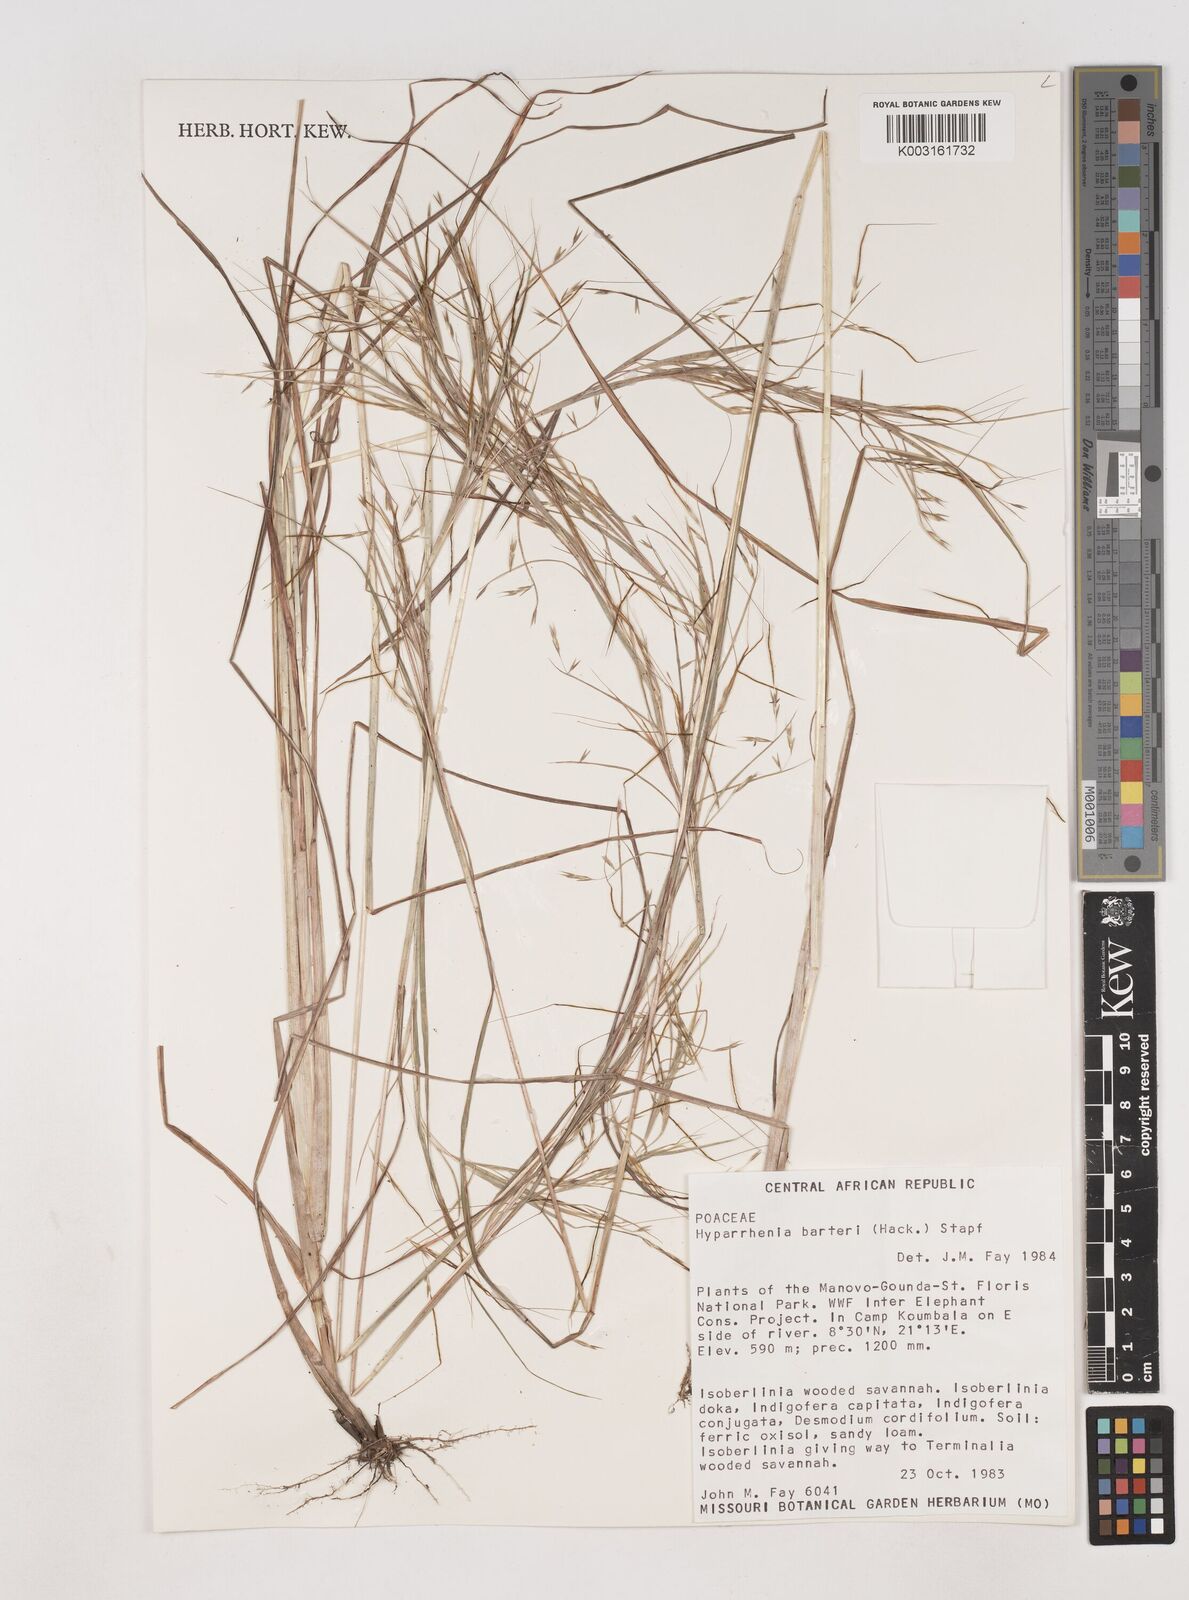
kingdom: Plantae
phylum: Tracheophyta
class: Liliopsida
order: Poales
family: Poaceae
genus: Hyparrhenia
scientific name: Hyparrhenia barteri
